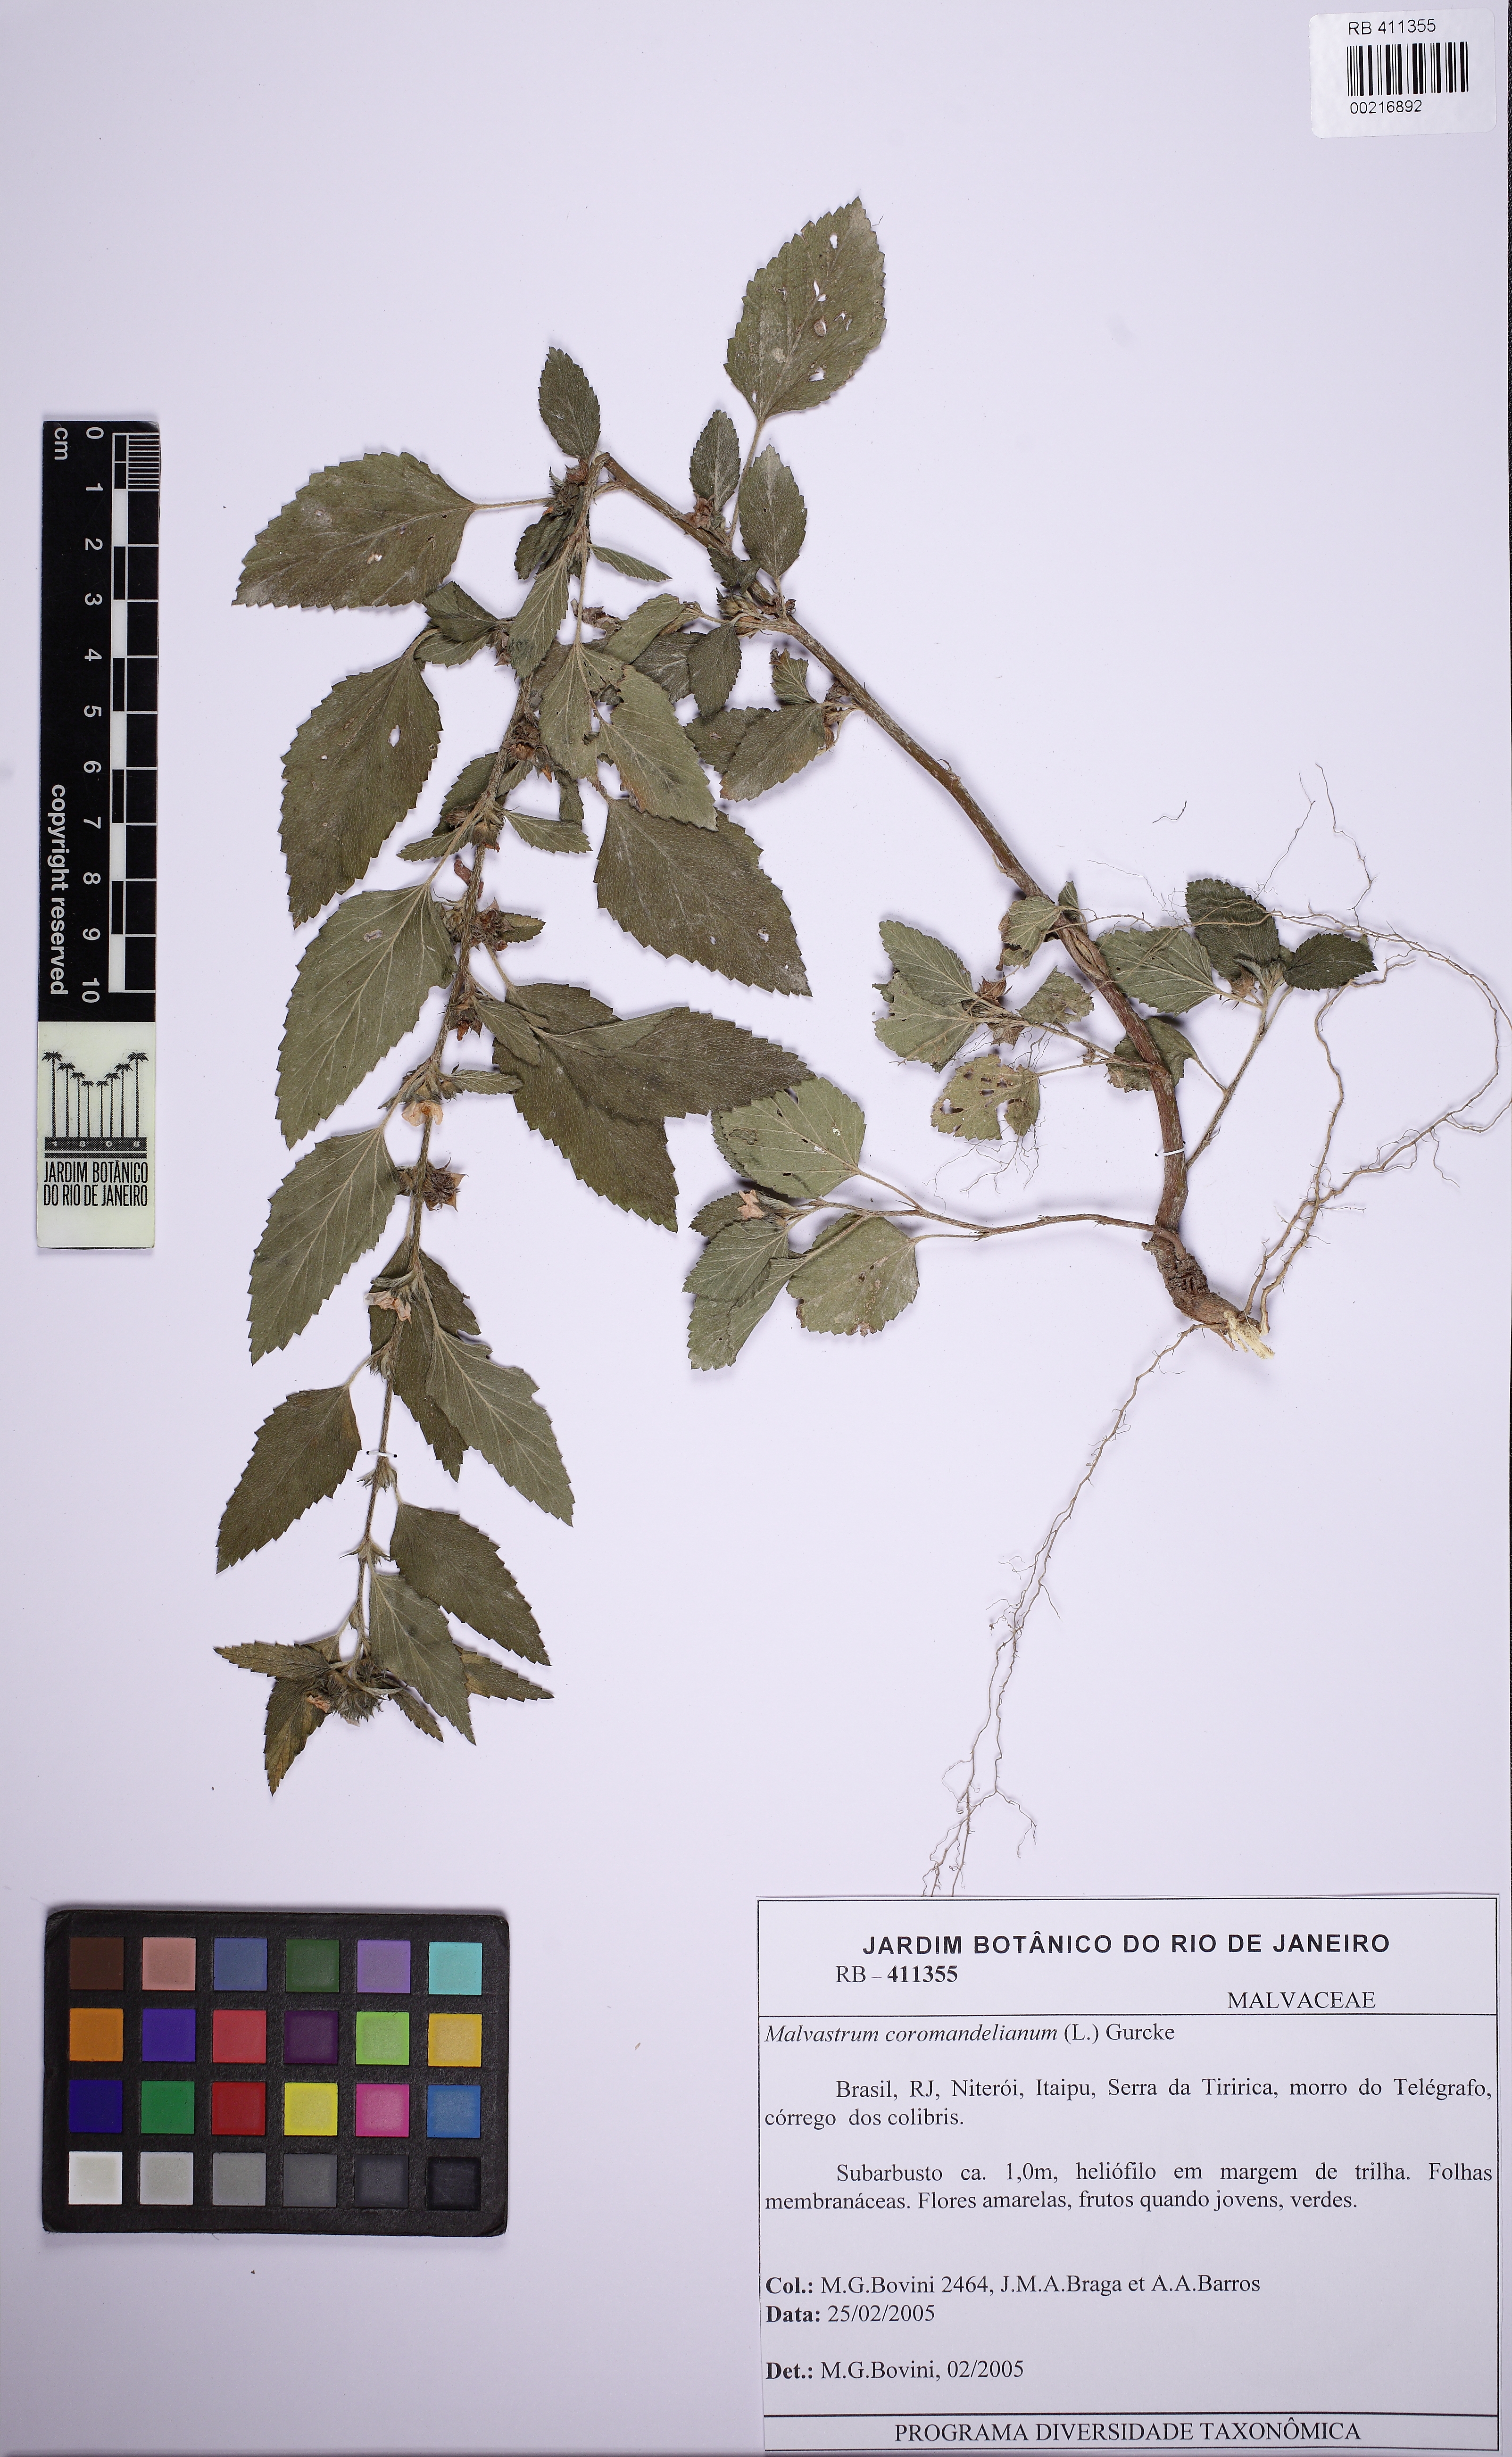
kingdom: Plantae
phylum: Tracheophyta
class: Magnoliopsida
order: Malvales
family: Malvaceae
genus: Malvastrum
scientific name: Malvastrum coromandelianum
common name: Threelobe false mallow
